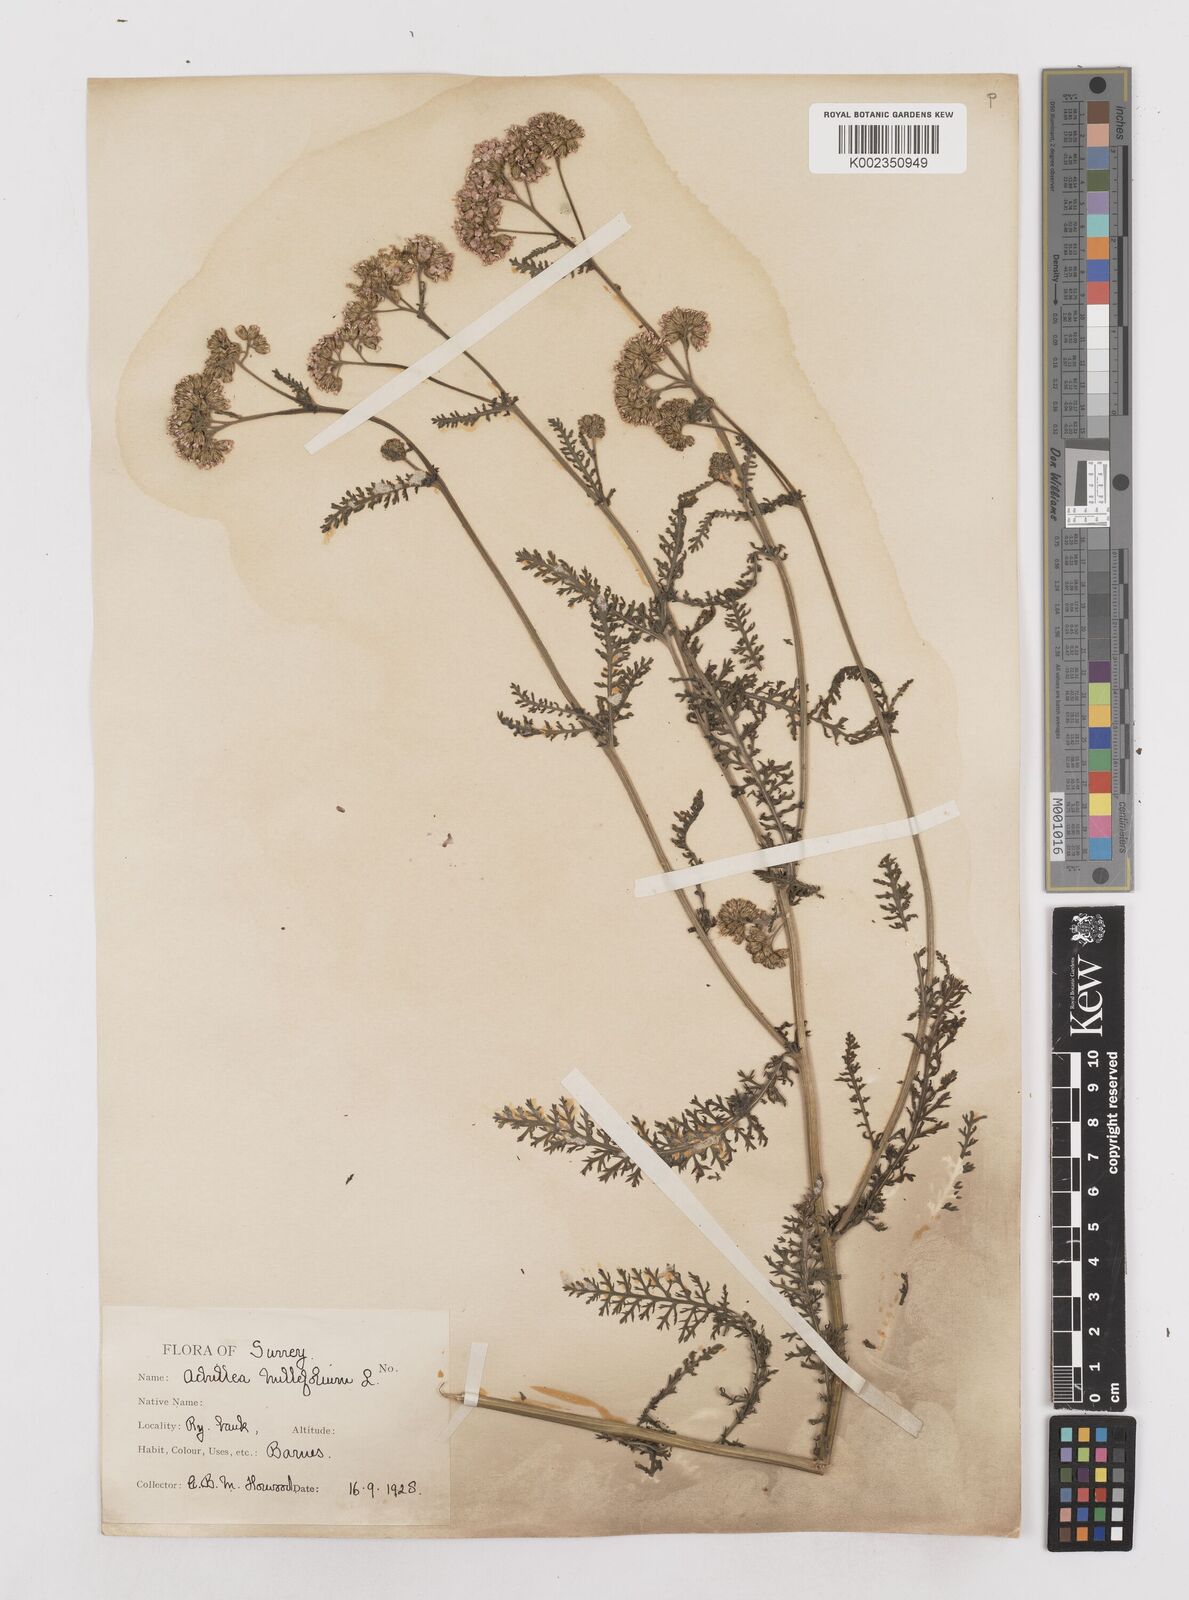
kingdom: Plantae
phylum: Tracheophyta
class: Magnoliopsida
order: Asterales
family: Asteraceae
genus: Achillea
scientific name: Achillea millefolium
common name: Yarrow
